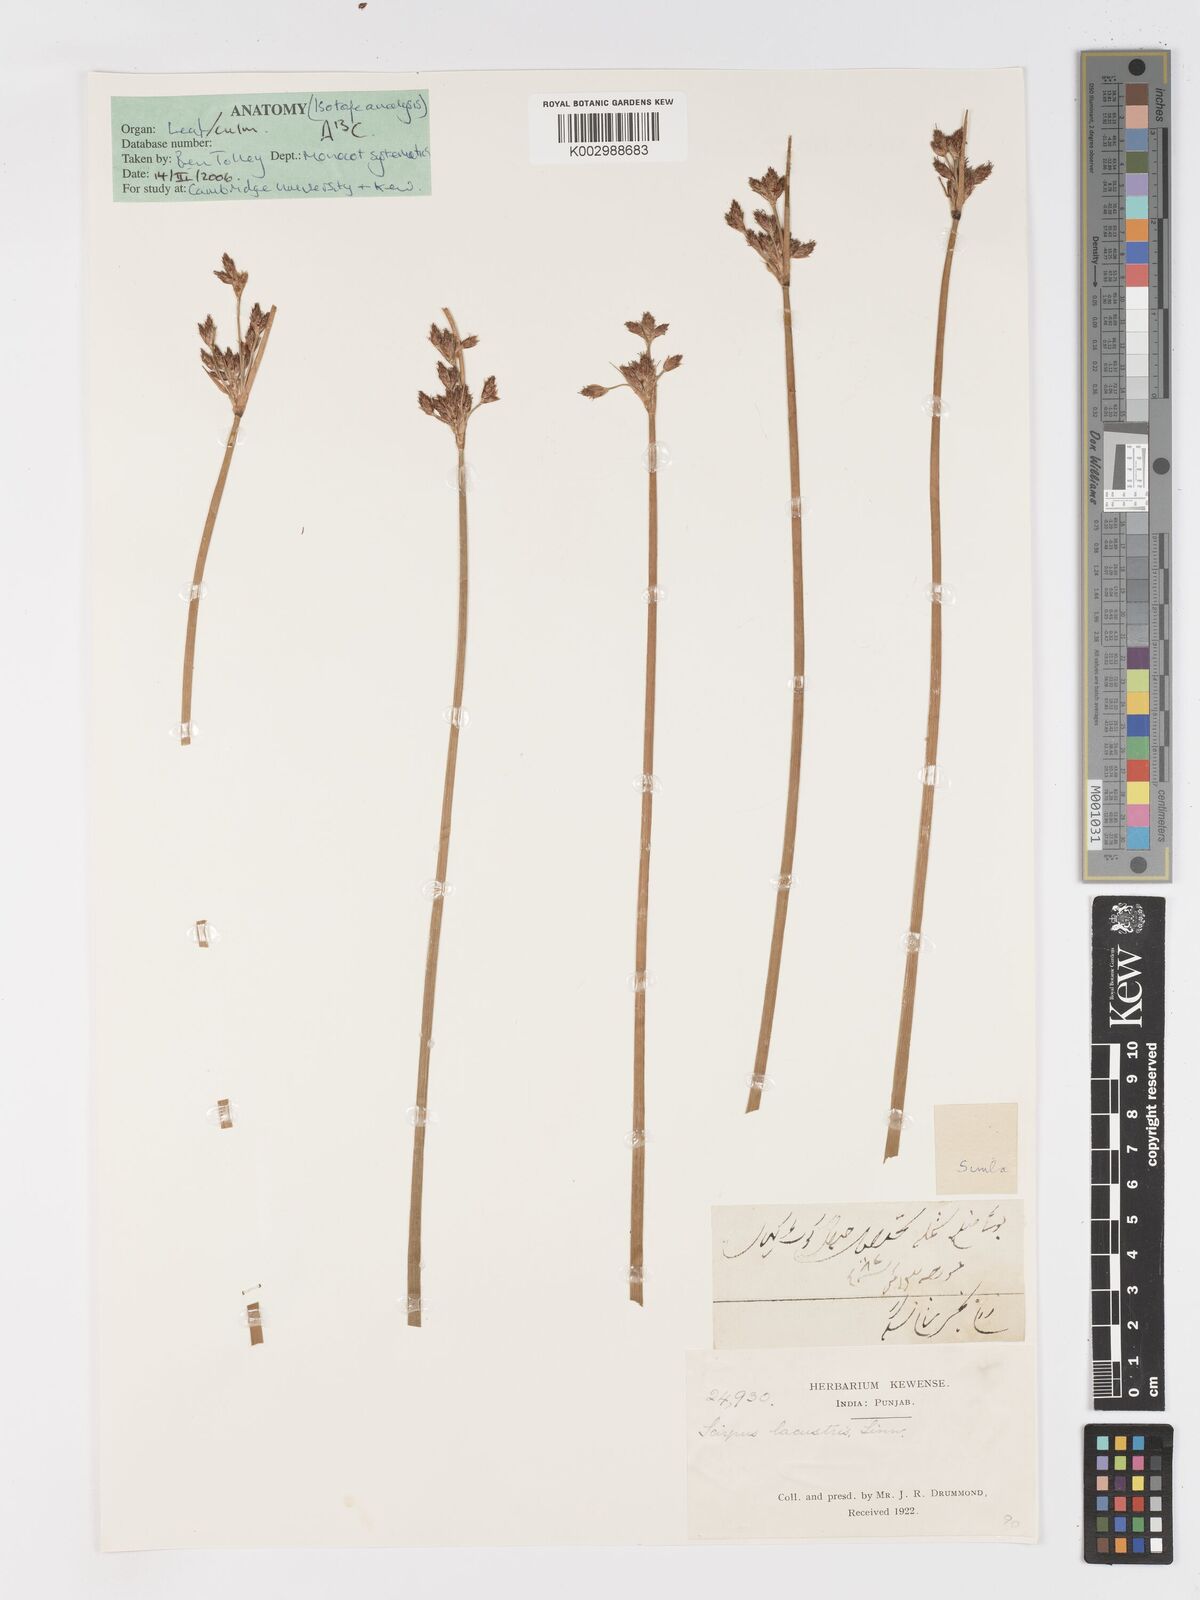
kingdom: Plantae
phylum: Tracheophyta
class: Liliopsida
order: Poales
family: Cyperaceae
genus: Schoenoplectus
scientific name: Schoenoplectus lacustris
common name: Common club-rush
